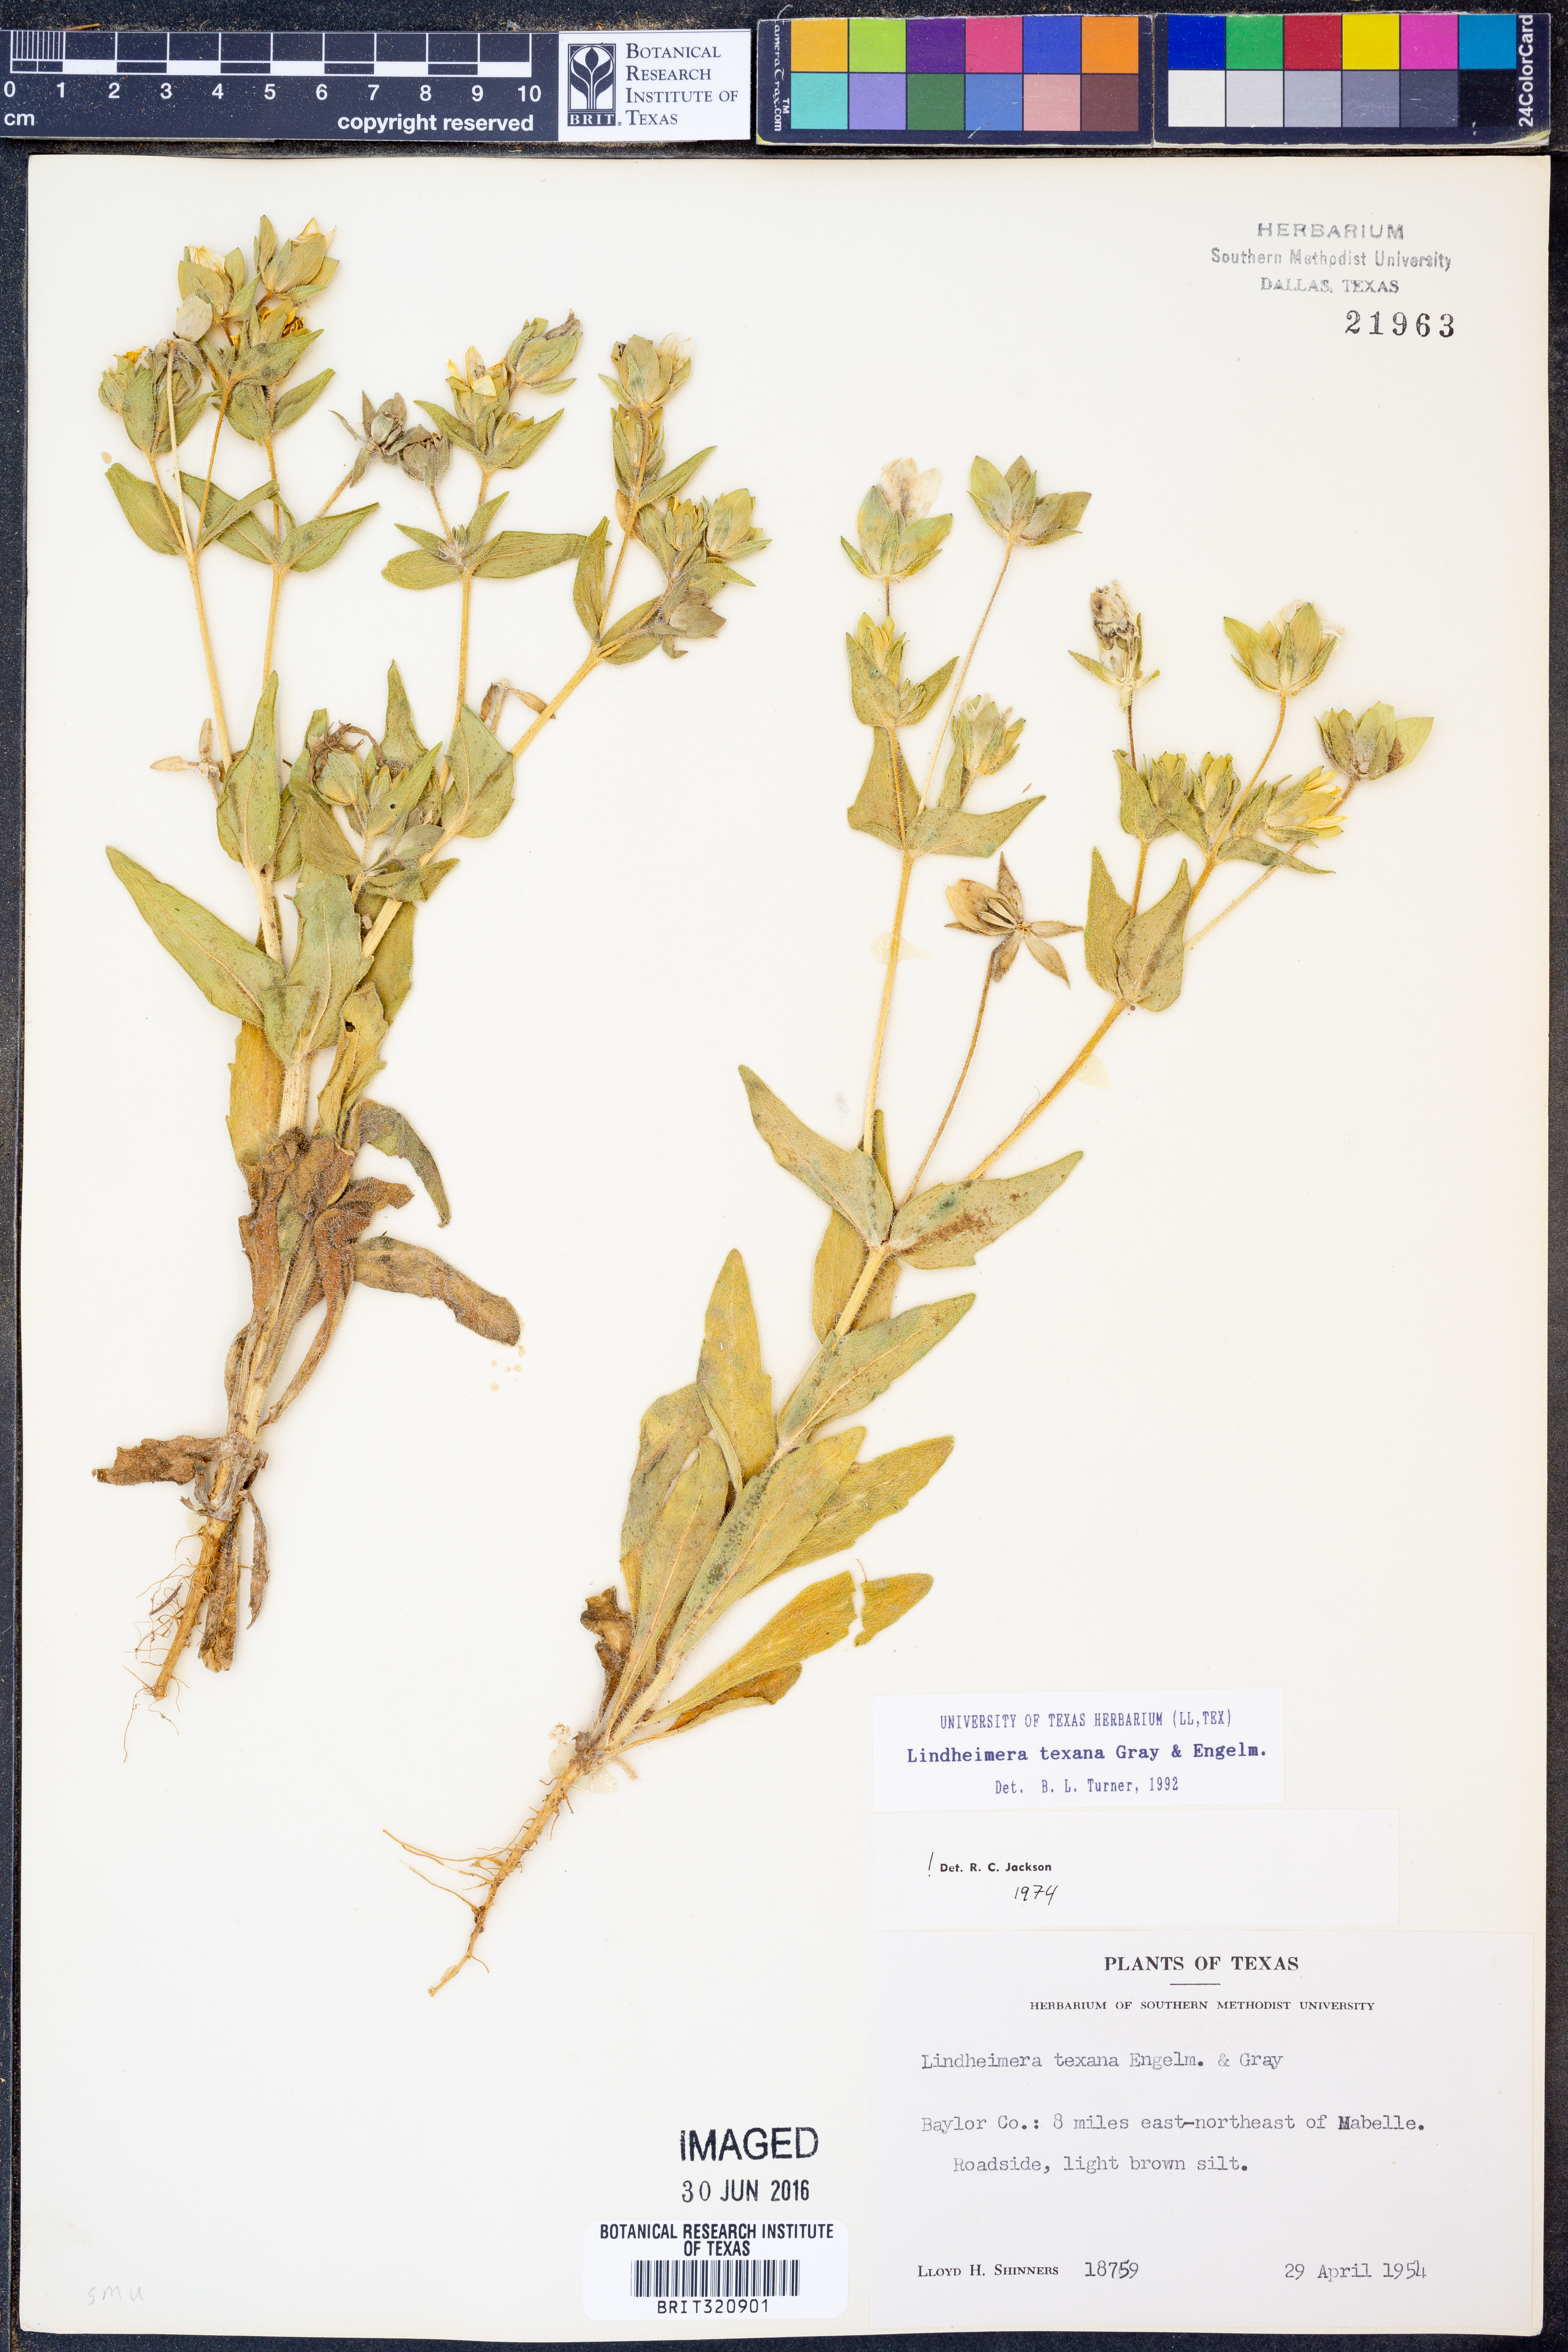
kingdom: Plantae
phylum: Tracheophyta
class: Magnoliopsida
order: Asterales
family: Asteraceae
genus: Lindheimera
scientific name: Lindheimera texana
